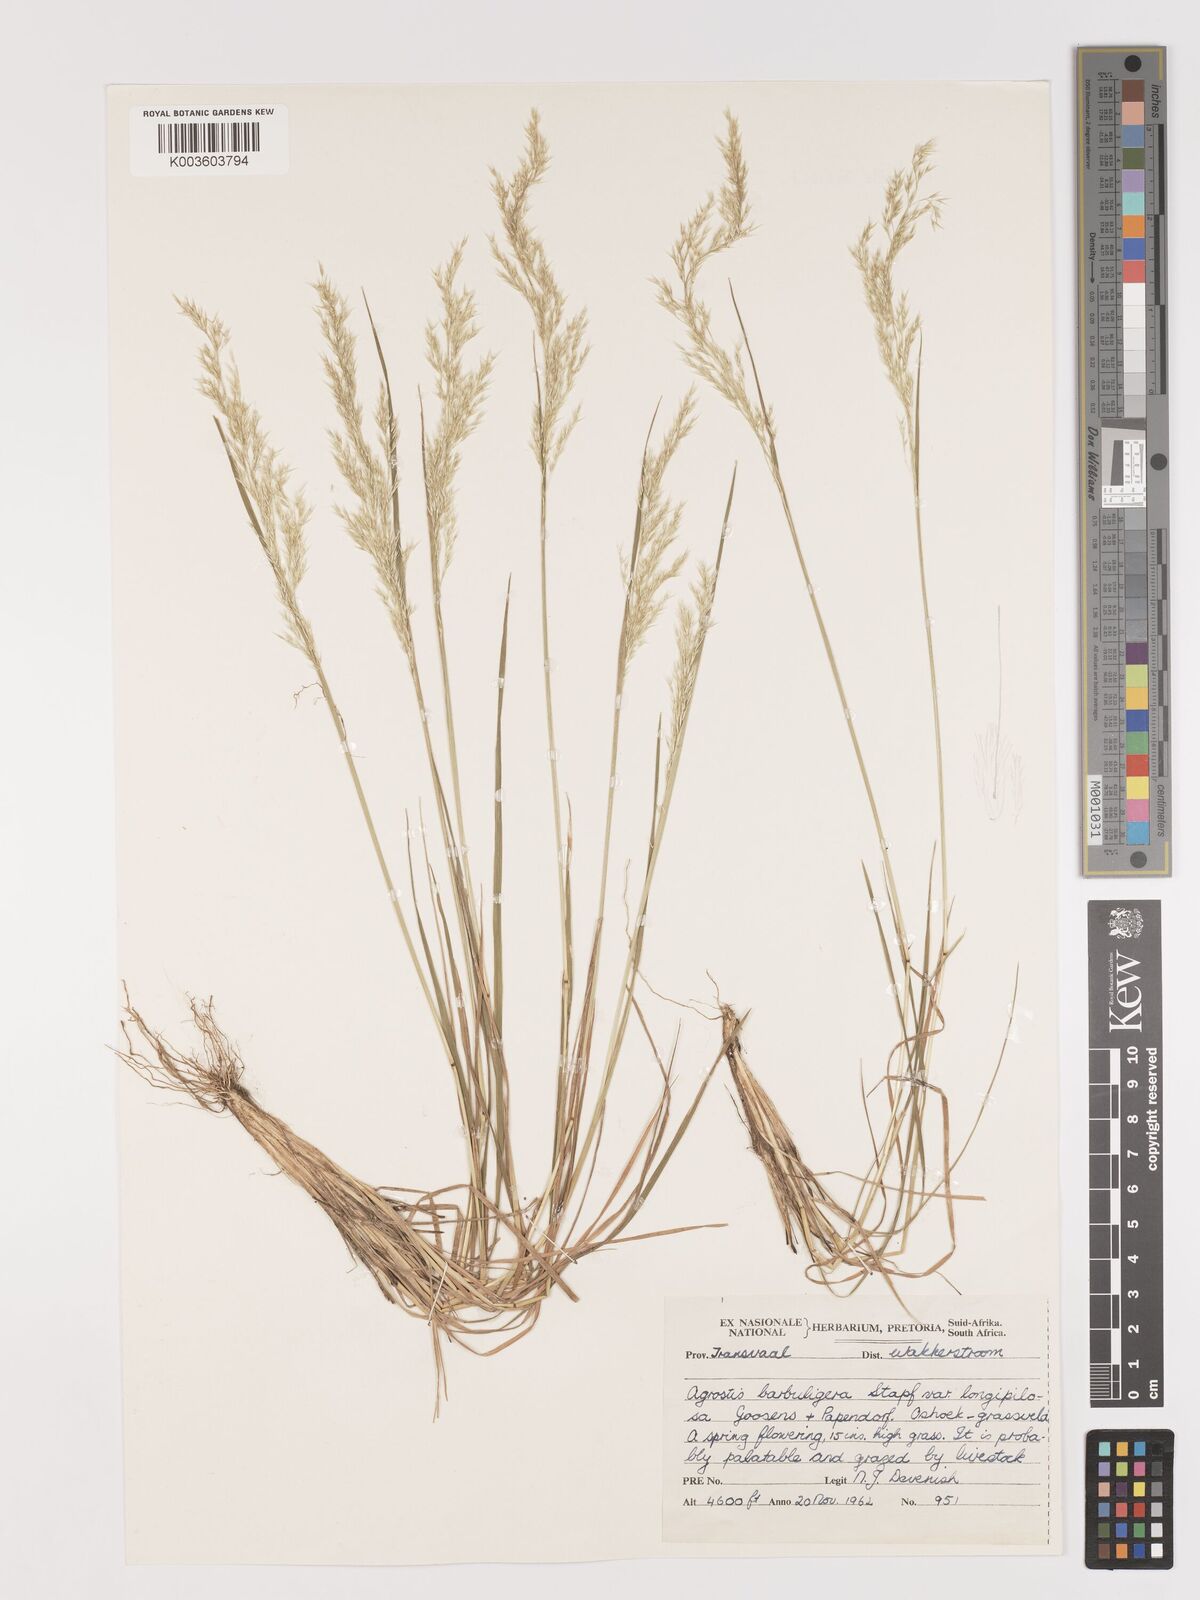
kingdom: Plantae
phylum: Tracheophyta
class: Liliopsida
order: Poales
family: Poaceae
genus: Lachnagrostis
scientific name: Lachnagrostis lachnantha
